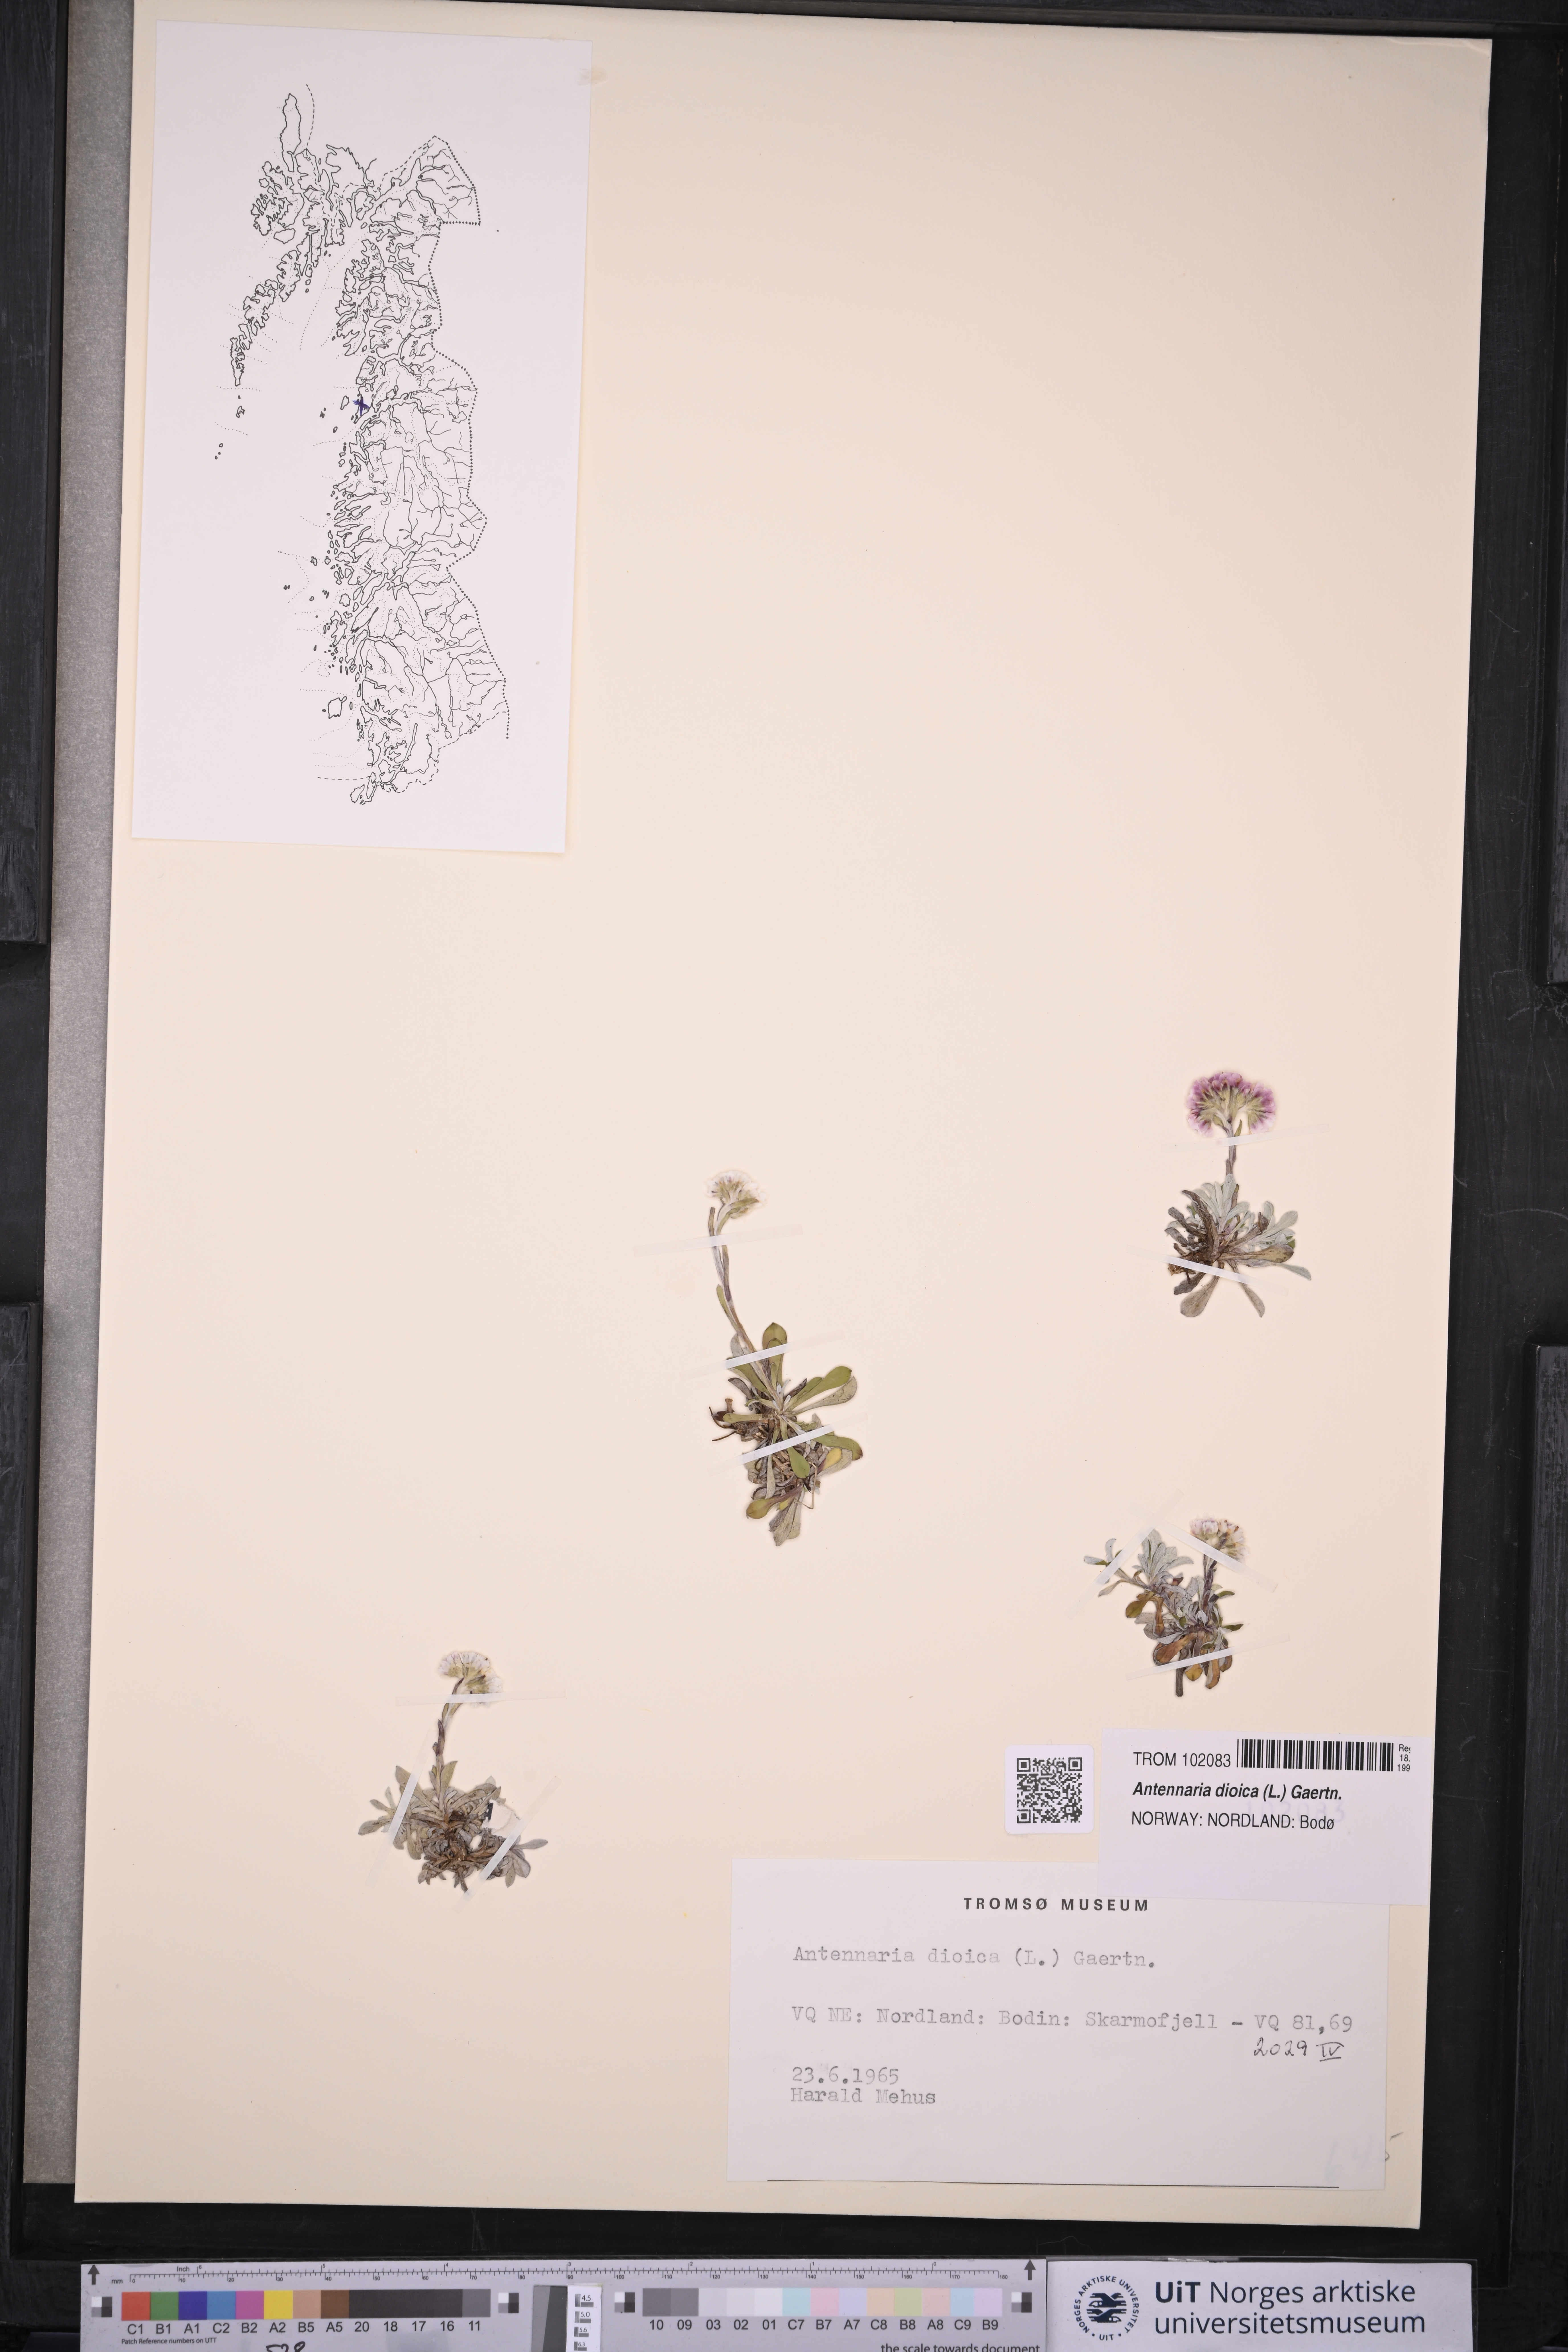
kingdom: Plantae
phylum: Tracheophyta
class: Magnoliopsida
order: Asterales
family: Asteraceae
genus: Antennaria
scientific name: Antennaria dioica
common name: Mountain everlasting
